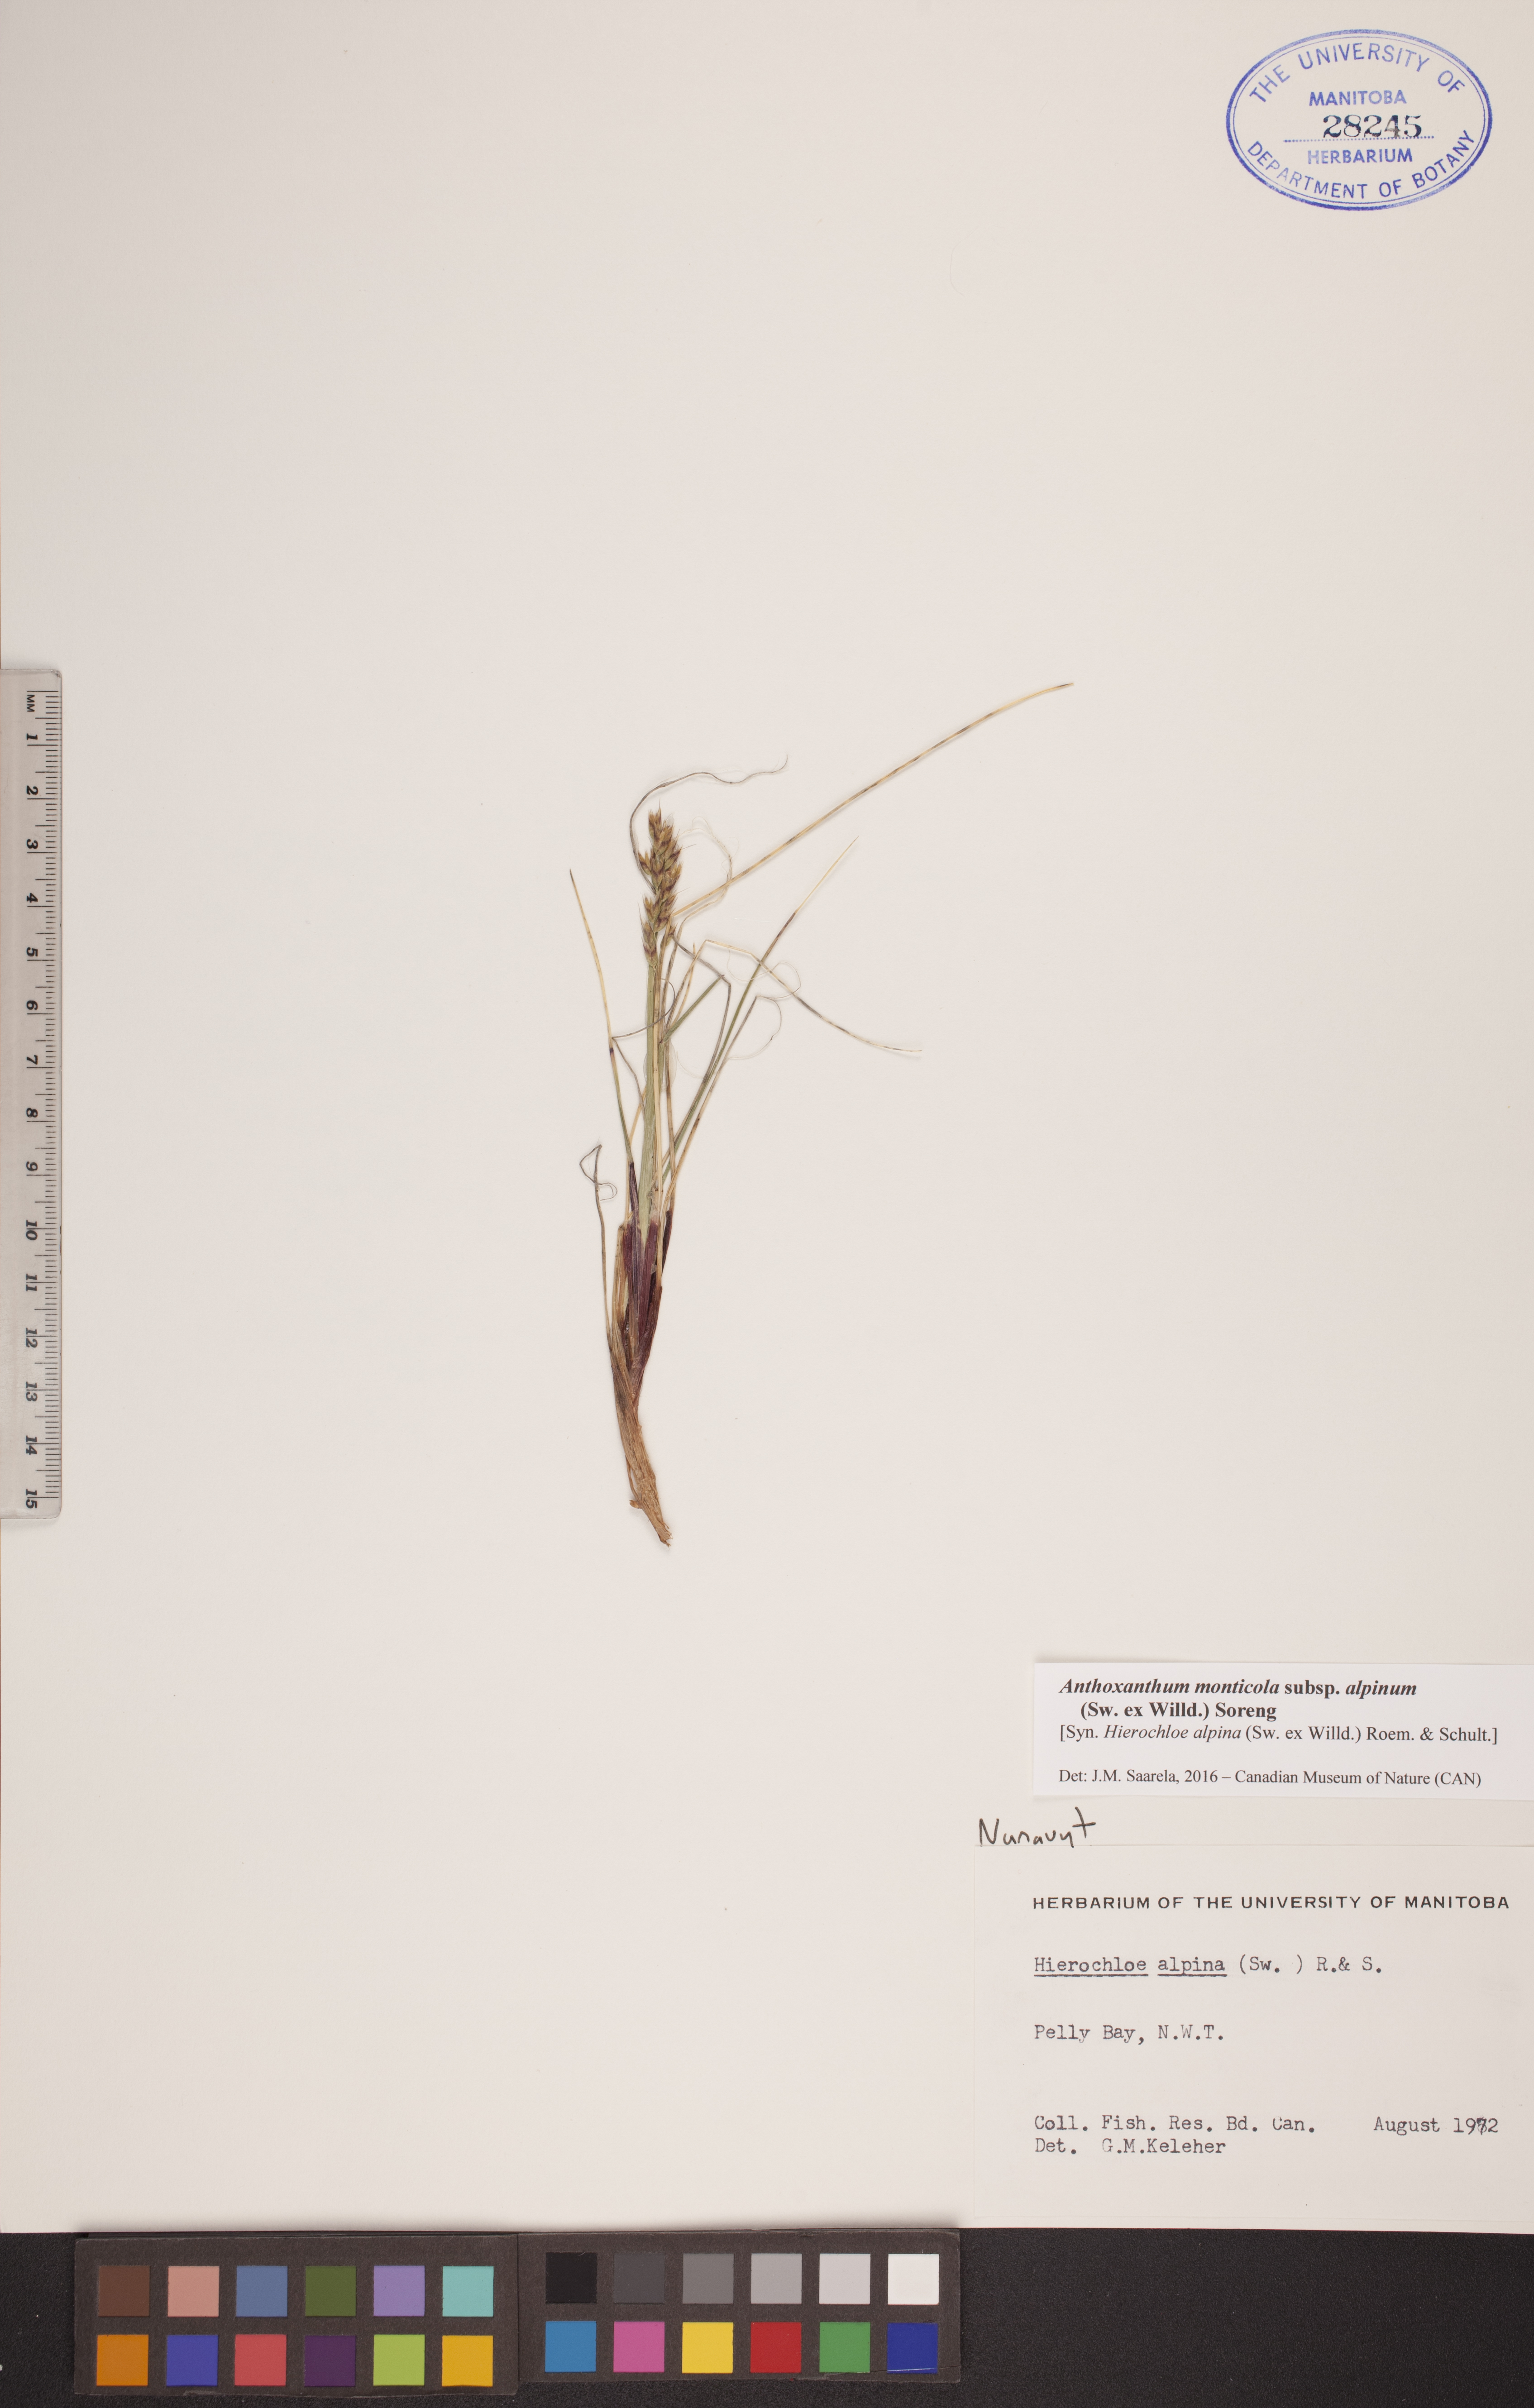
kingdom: Plantae
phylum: Tracheophyta
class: Liliopsida
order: Poales
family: Poaceae
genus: Anthoxanthum
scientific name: Anthoxanthum monticola
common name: Alpine sweetgrass
